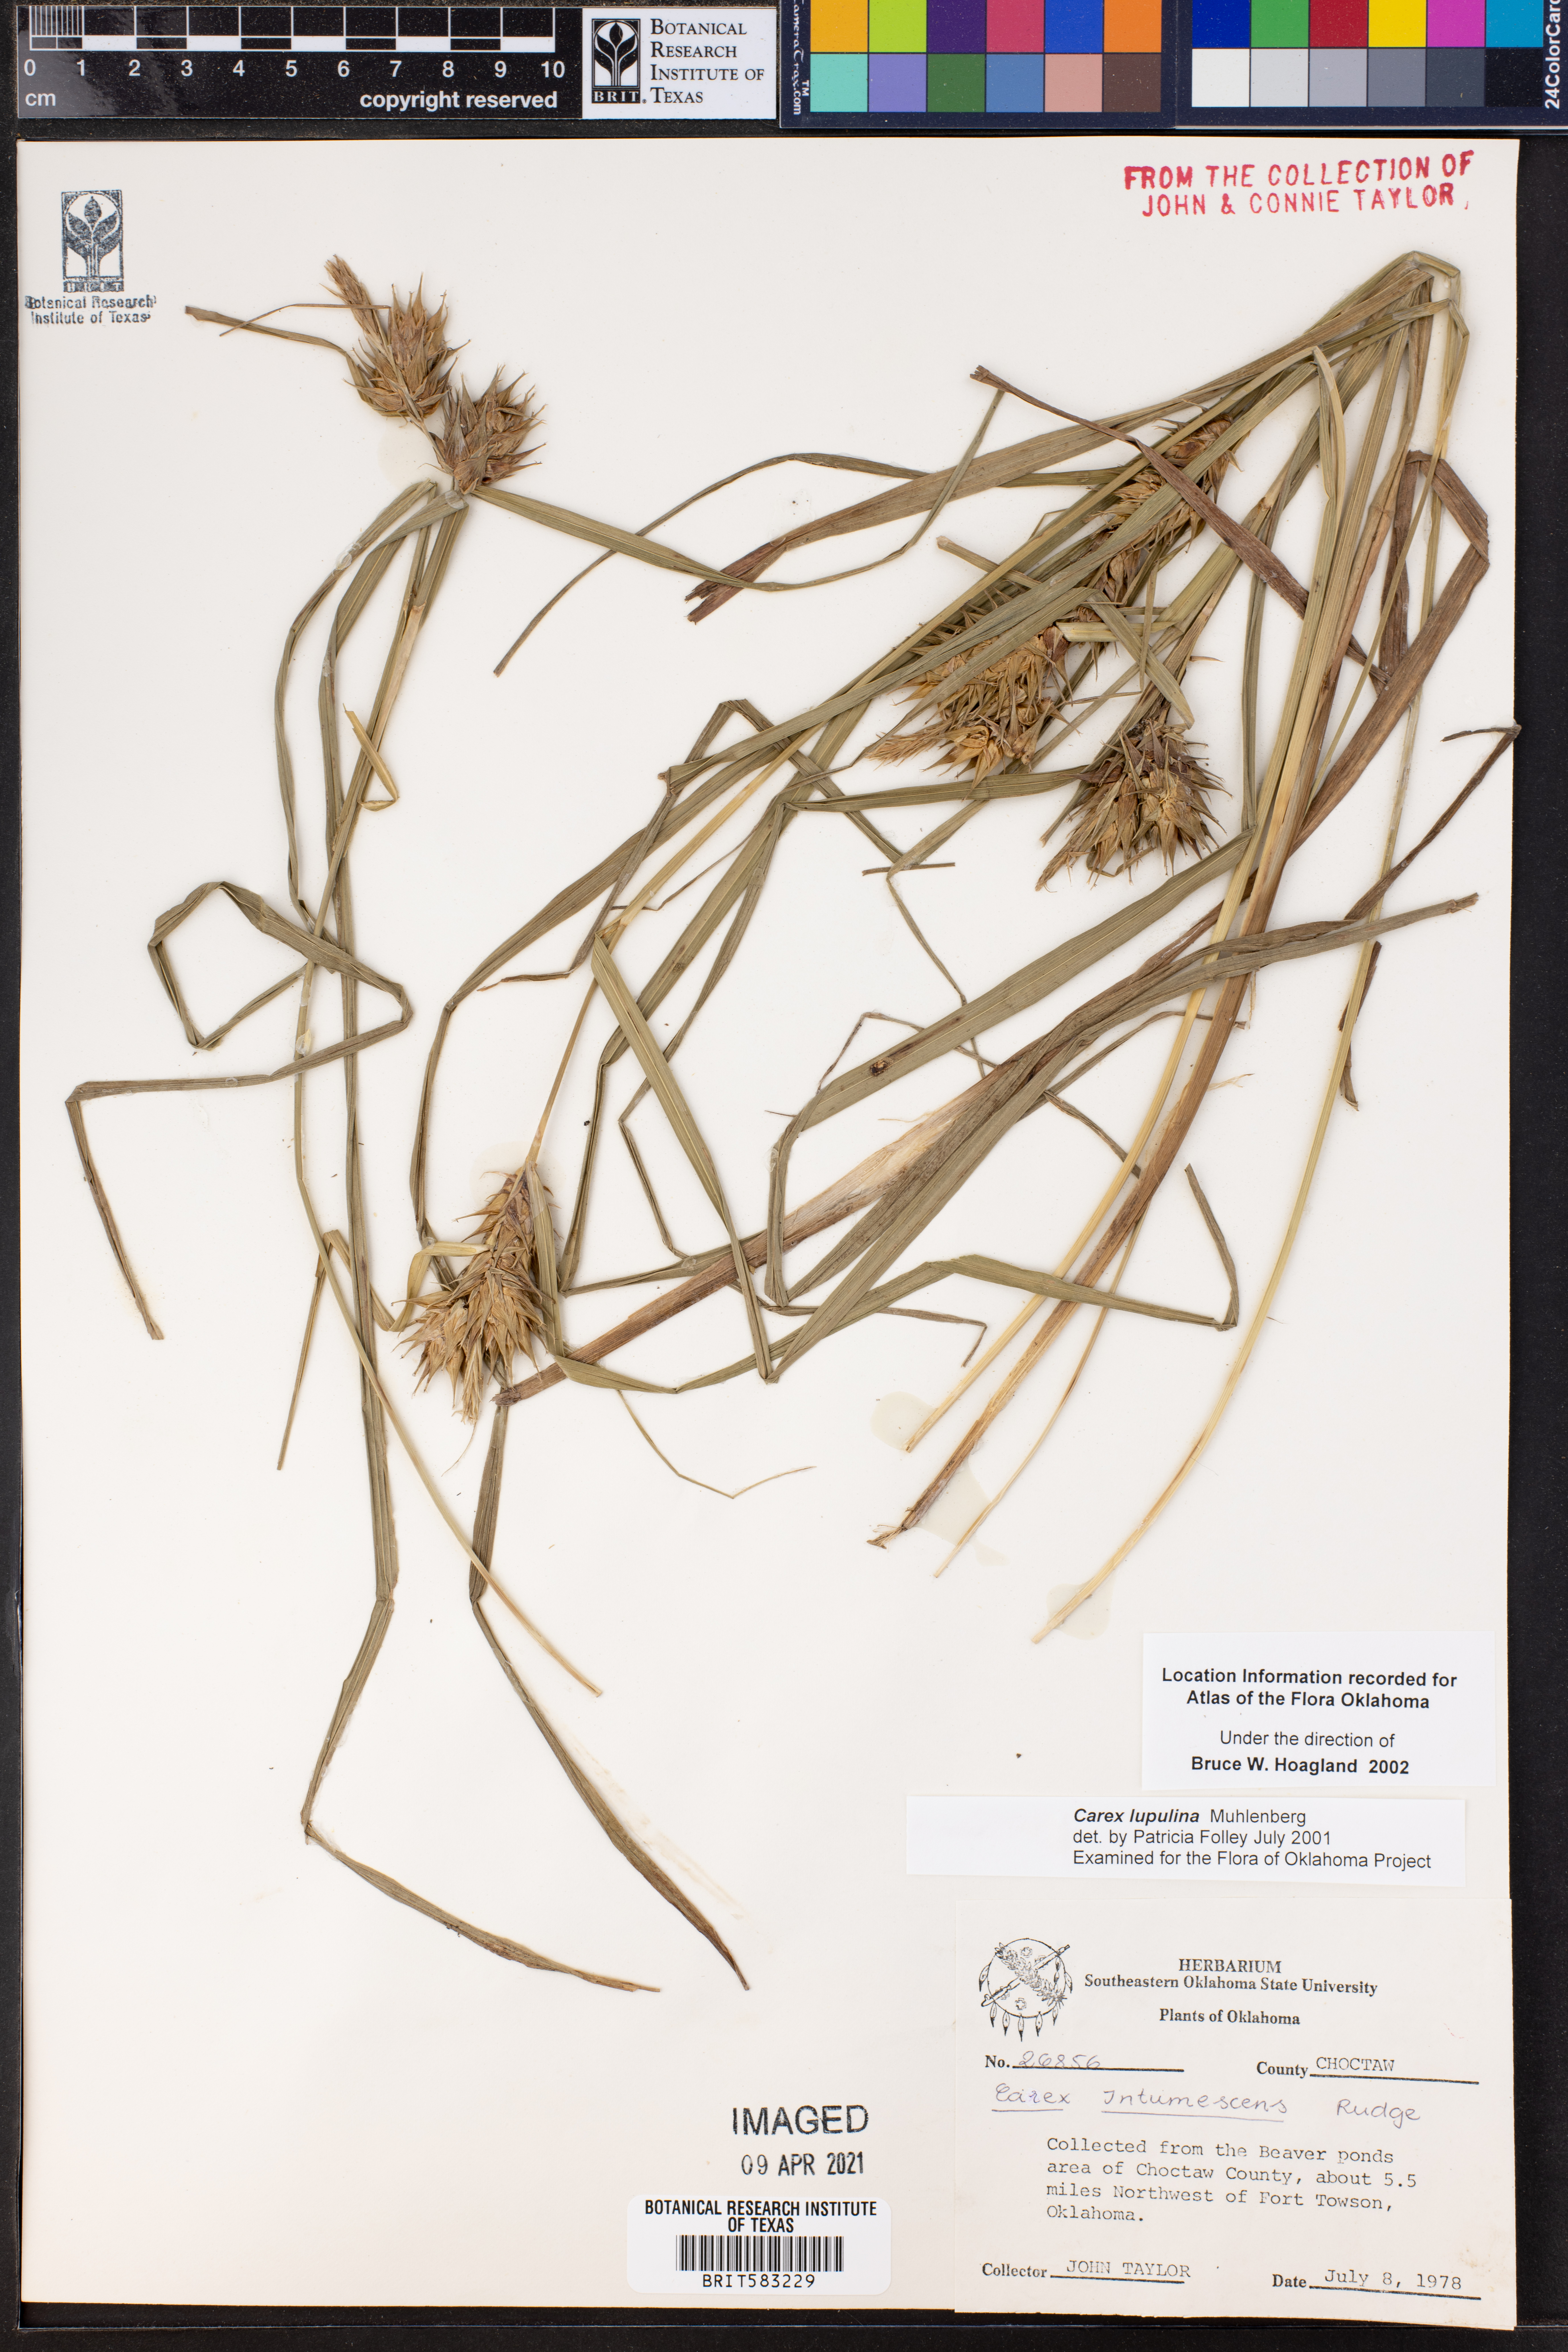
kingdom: Plantae
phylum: Tracheophyta
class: Liliopsida
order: Poales
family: Cyperaceae
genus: Carex
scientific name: Carex lupulina
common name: Hop sedge
